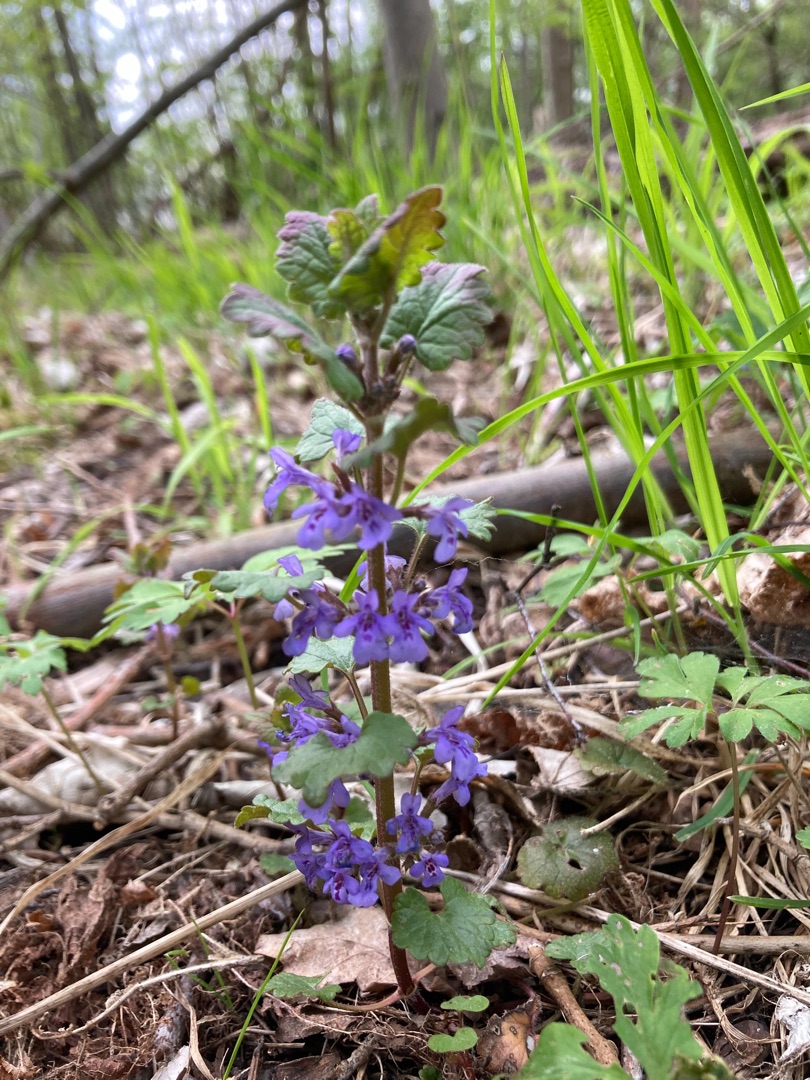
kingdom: Plantae
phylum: Tracheophyta
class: Magnoliopsida
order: Lamiales
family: Lamiaceae
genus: Glechoma
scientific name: Glechoma hederacea
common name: Korsknap
